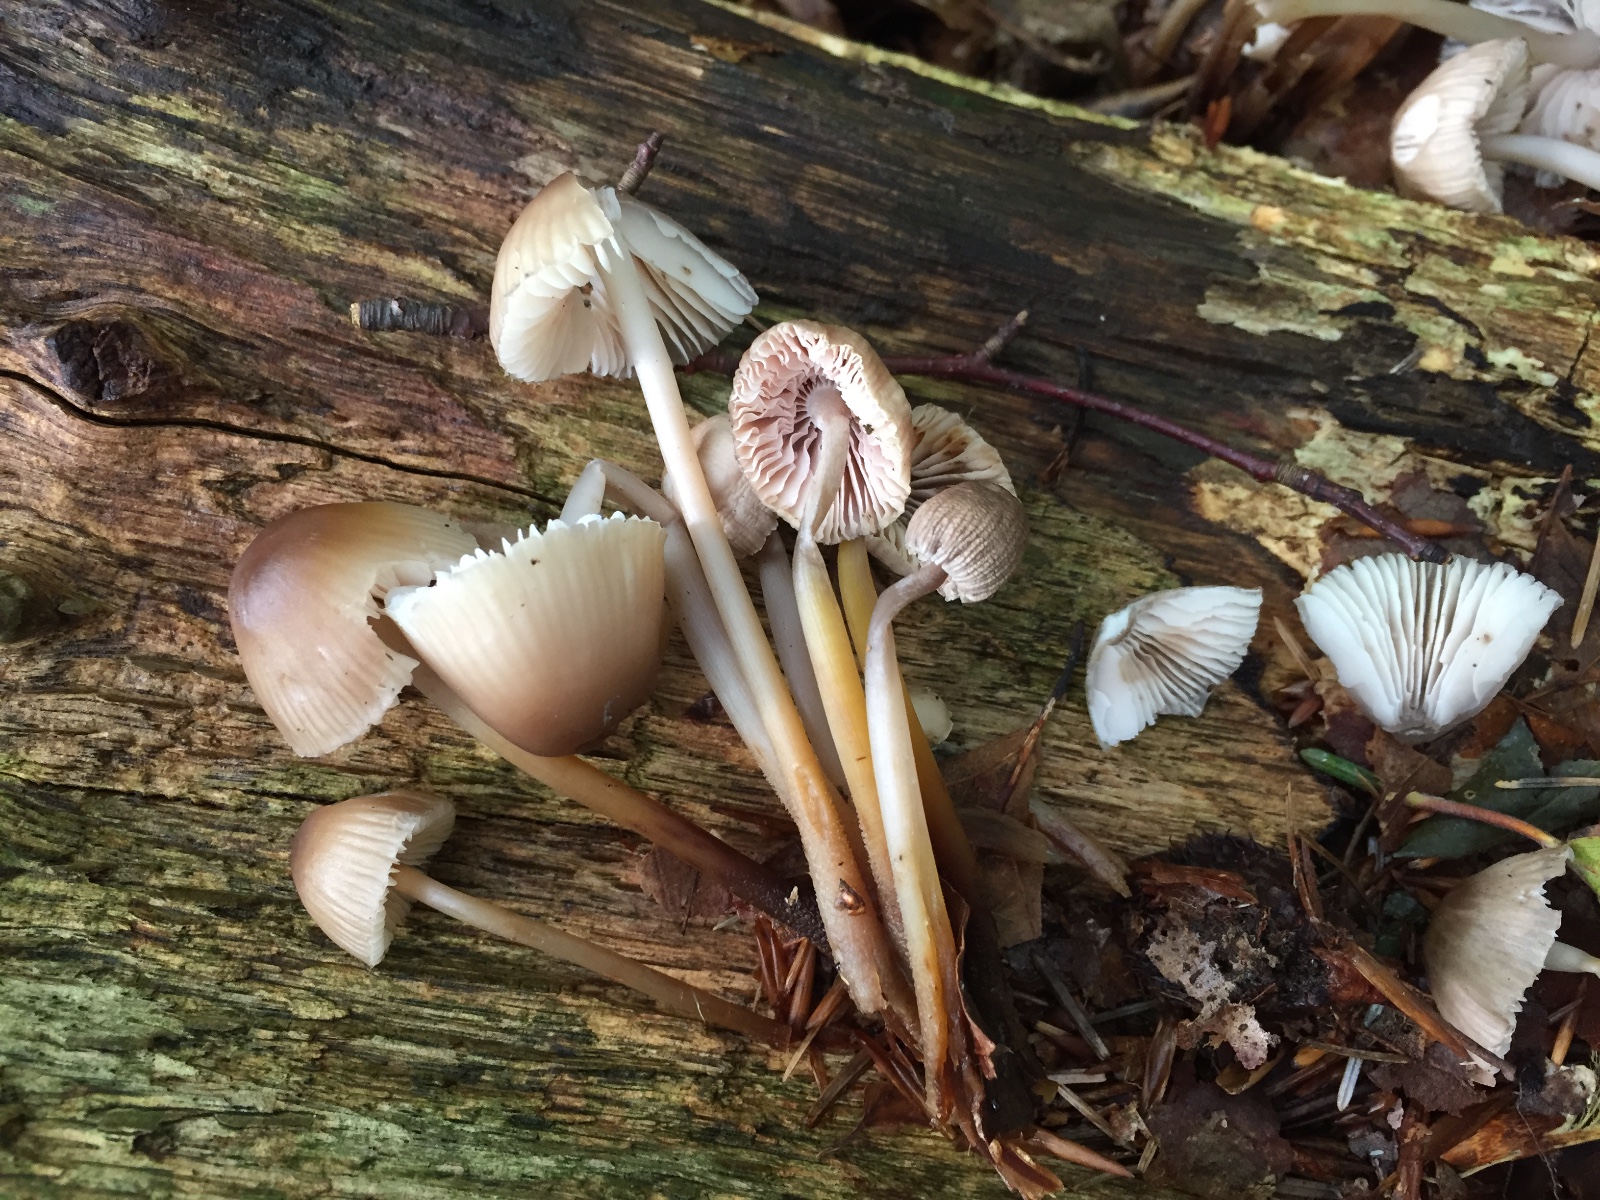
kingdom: Fungi
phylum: Basidiomycota
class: Agaricomycetes
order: Agaricales
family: Mycenaceae
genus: Mycena
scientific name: Mycena inclinata
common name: nikkende huesvamp
